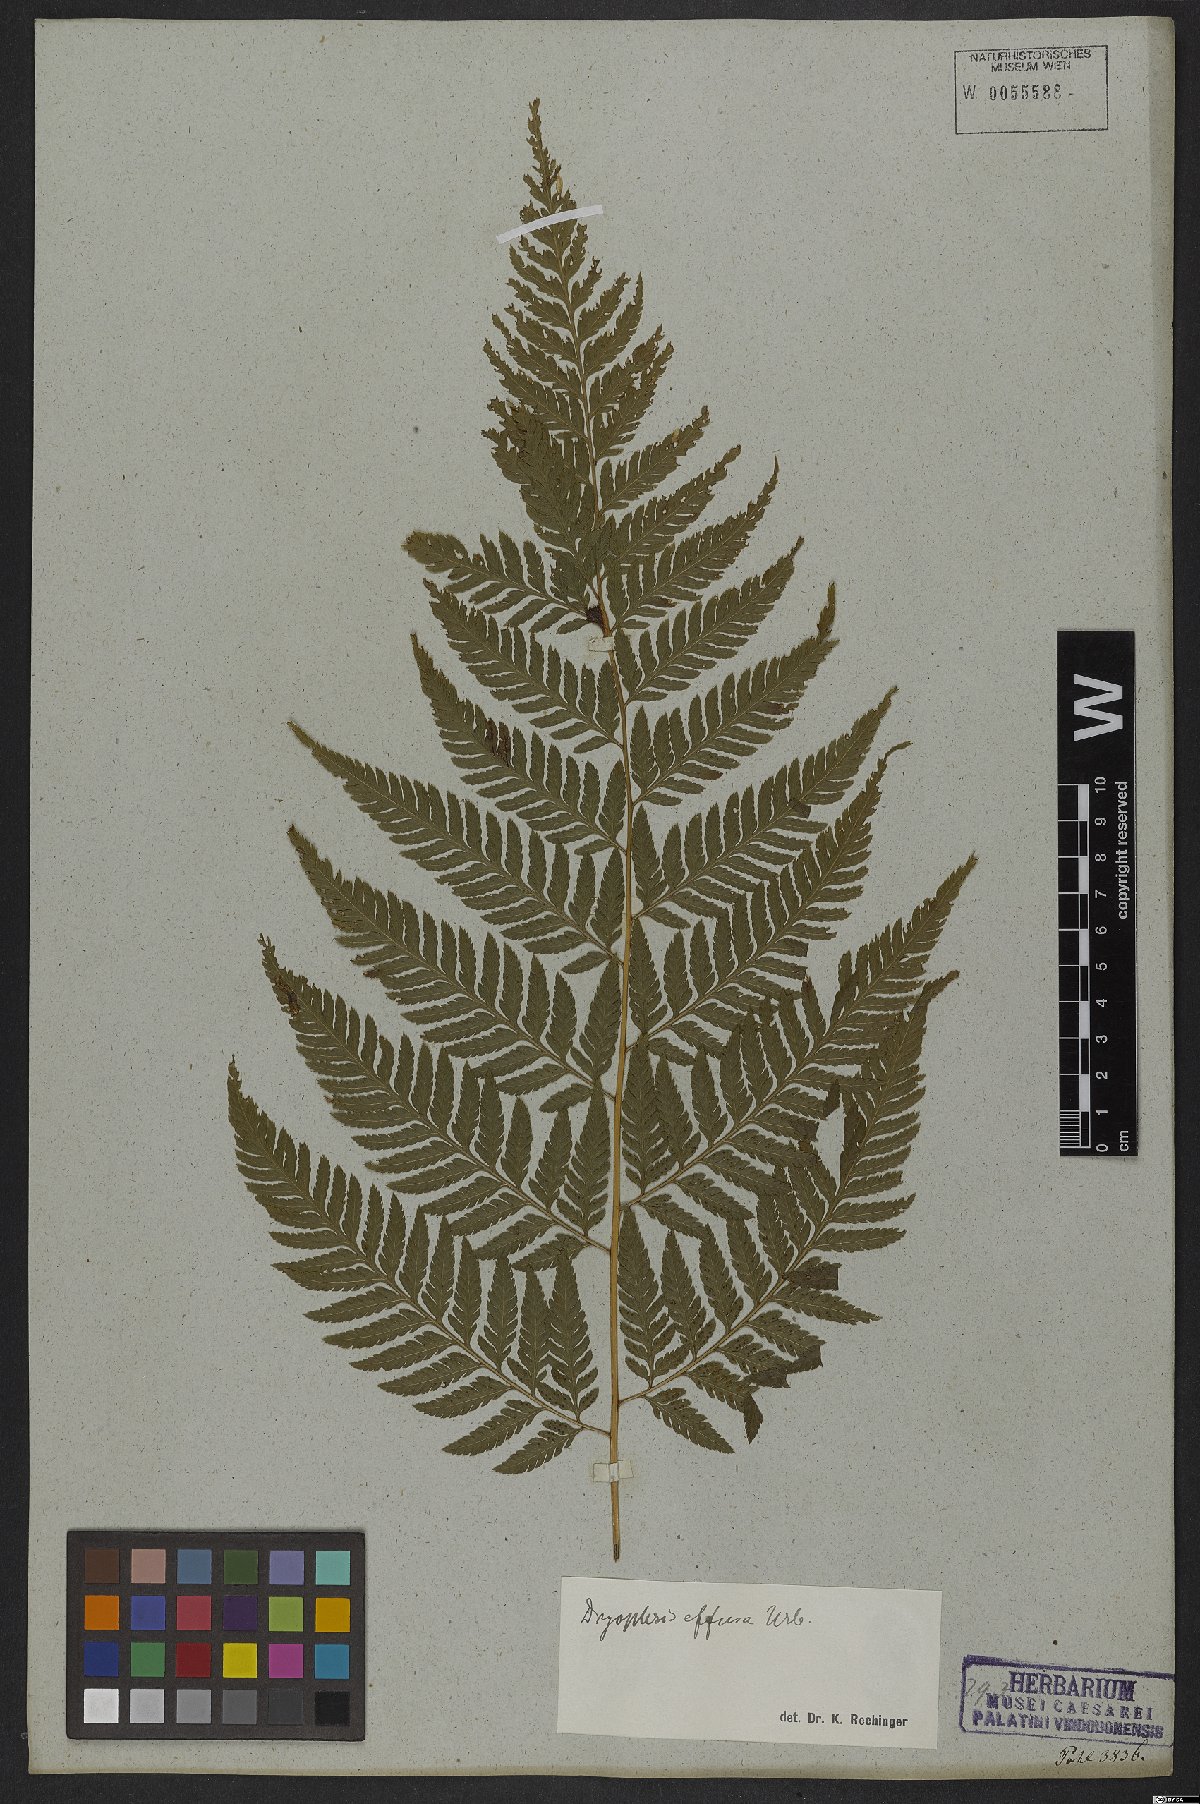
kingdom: Plantae
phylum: Tracheophyta
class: Polypodiopsida
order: Polypodiales
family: Dryopteridaceae
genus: Parapolystichum
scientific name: Parapolystichum effusum
